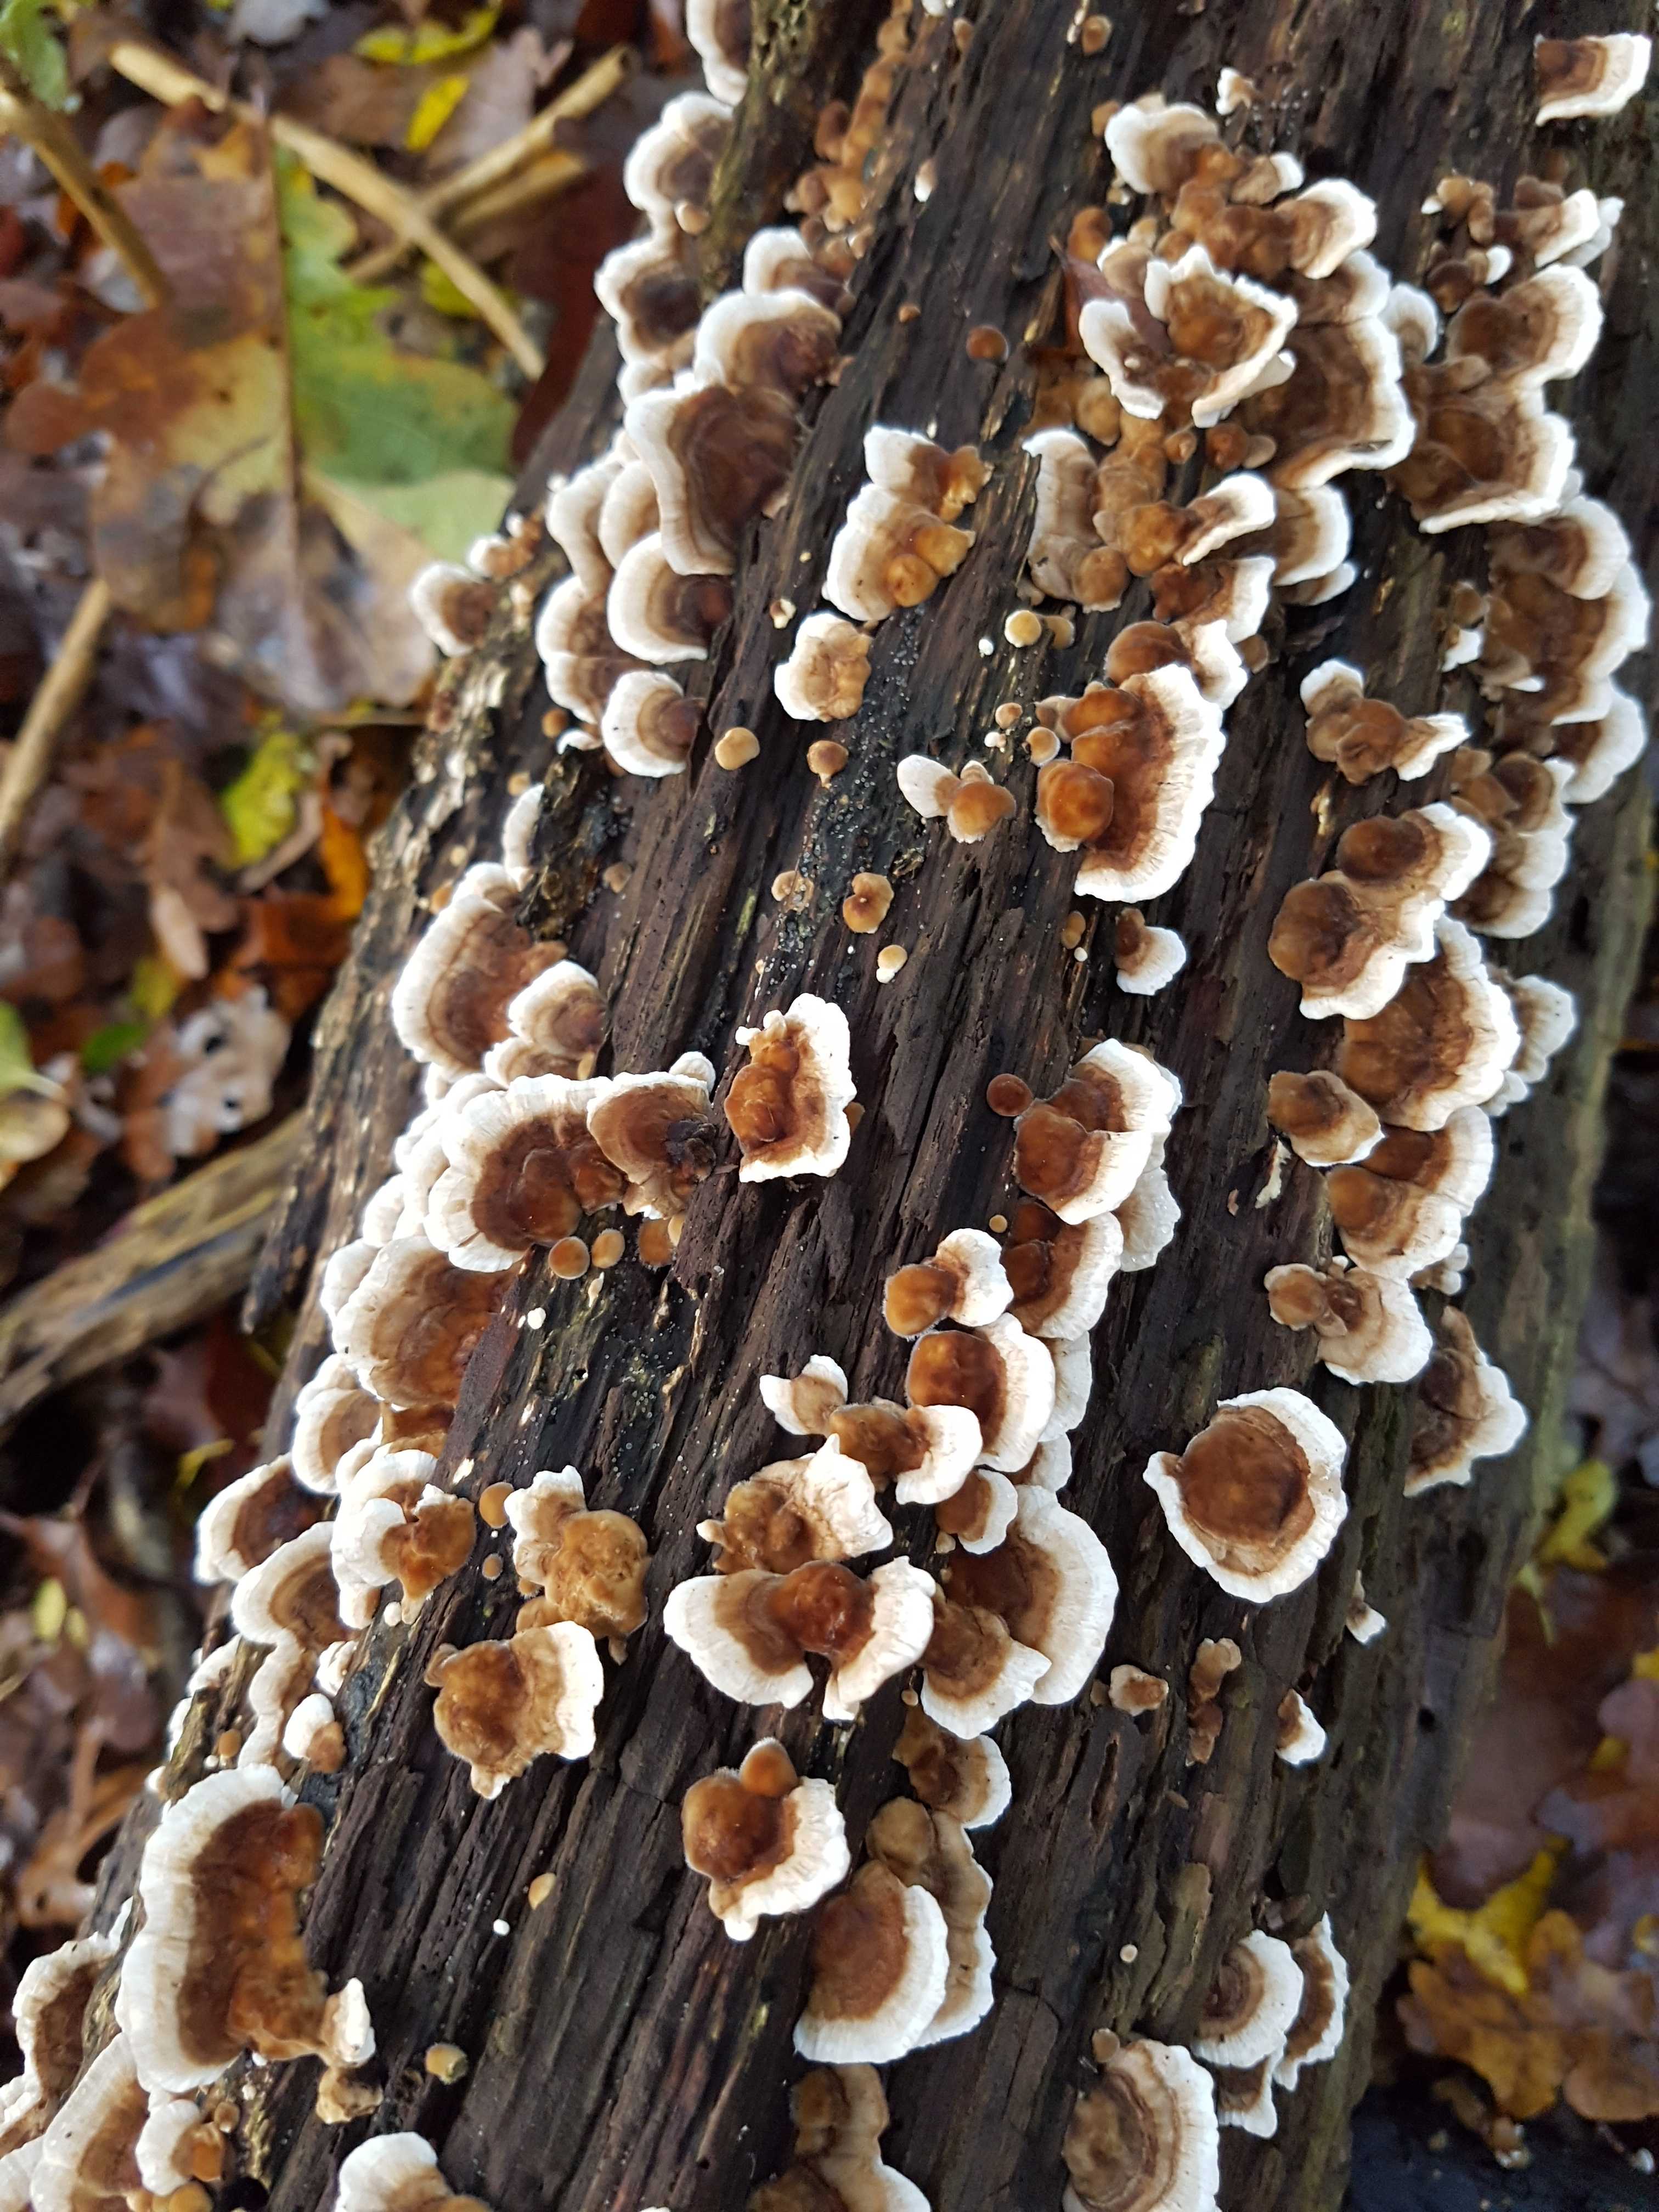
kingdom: Fungi
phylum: Basidiomycota
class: Agaricomycetes
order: Polyporales
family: Polyporaceae
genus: Trametes
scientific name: Trametes versicolor
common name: broget læderporesvamp
